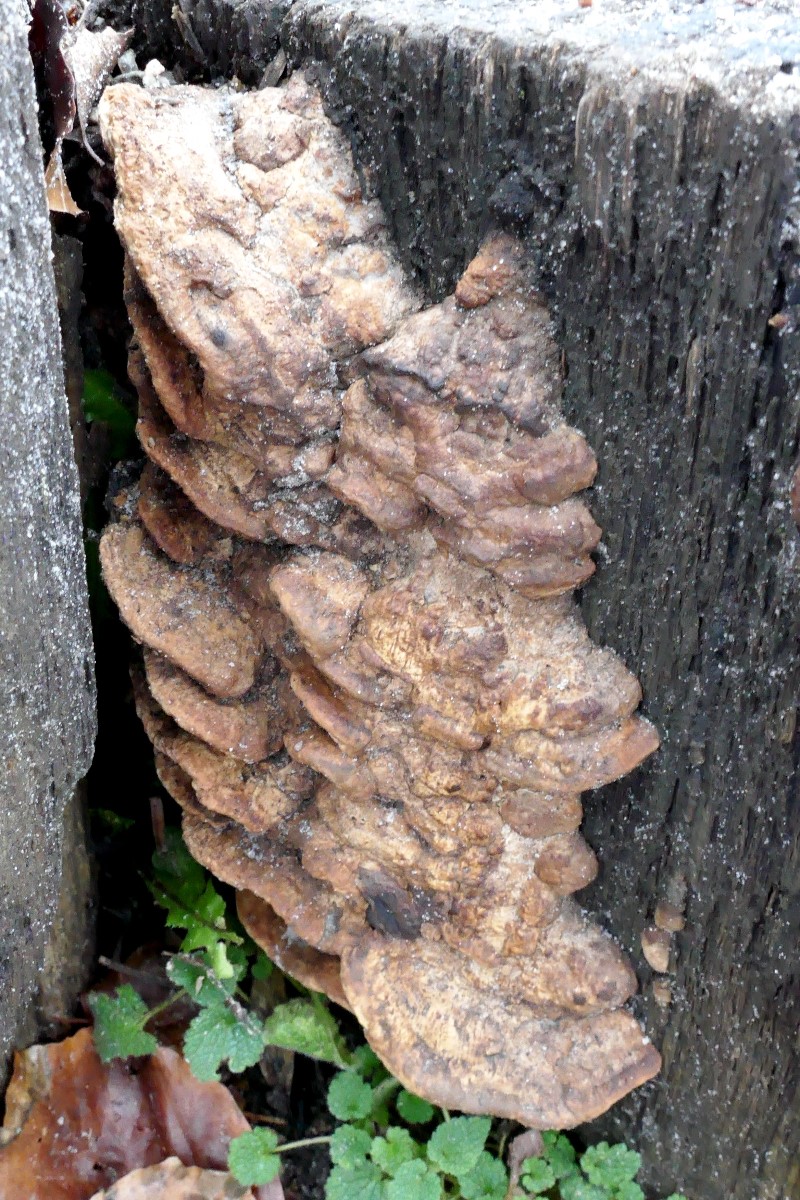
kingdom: Fungi
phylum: Basidiomycota
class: Agaricomycetes
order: Polyporales
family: Fomitopsidaceae
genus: Daedalea
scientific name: Daedalea quercina
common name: ege-labyrintsvamp
